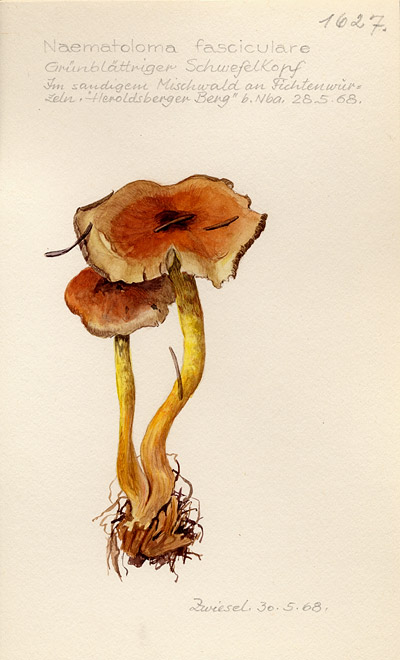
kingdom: Fungi
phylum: Basidiomycota
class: Agaricomycetes
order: Agaricales
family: Strophariaceae
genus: Hypholoma
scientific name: Hypholoma fasciculare
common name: Sulphur tuft
